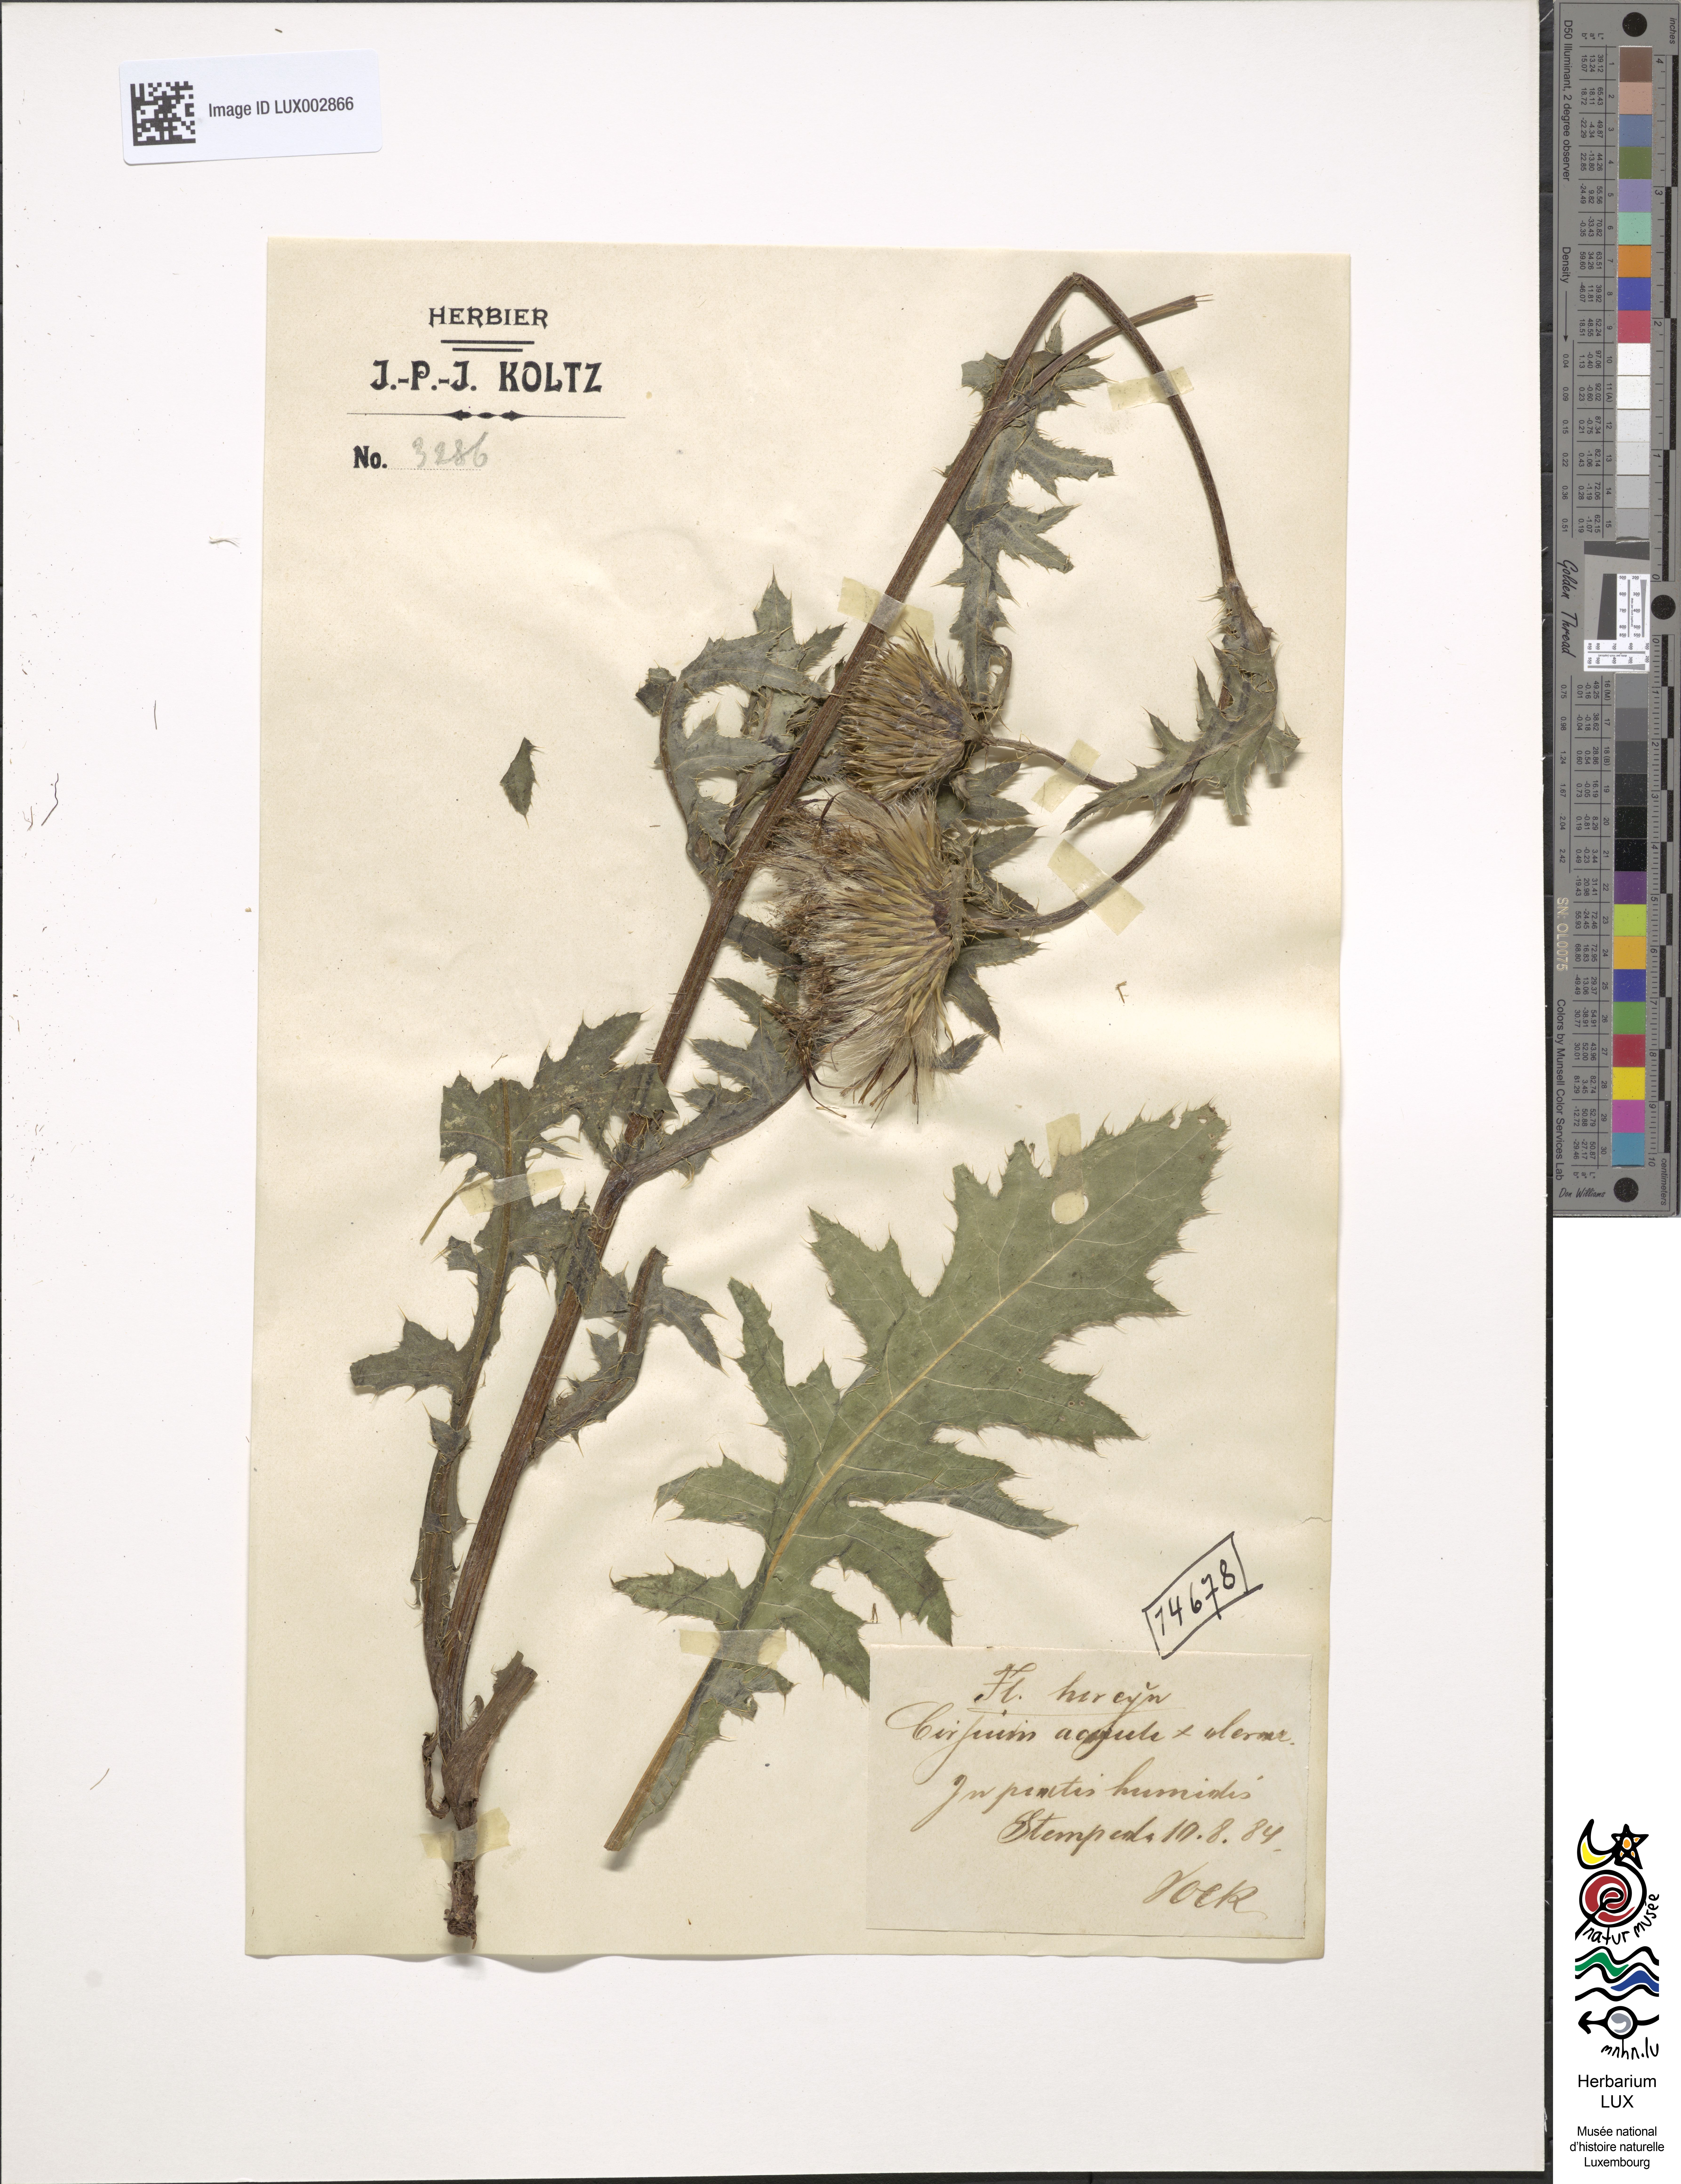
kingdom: Plantae
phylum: Tracheophyta
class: Magnoliopsida
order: Asterales
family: Asteraceae
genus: Cirsium
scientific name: Cirsium rigens
